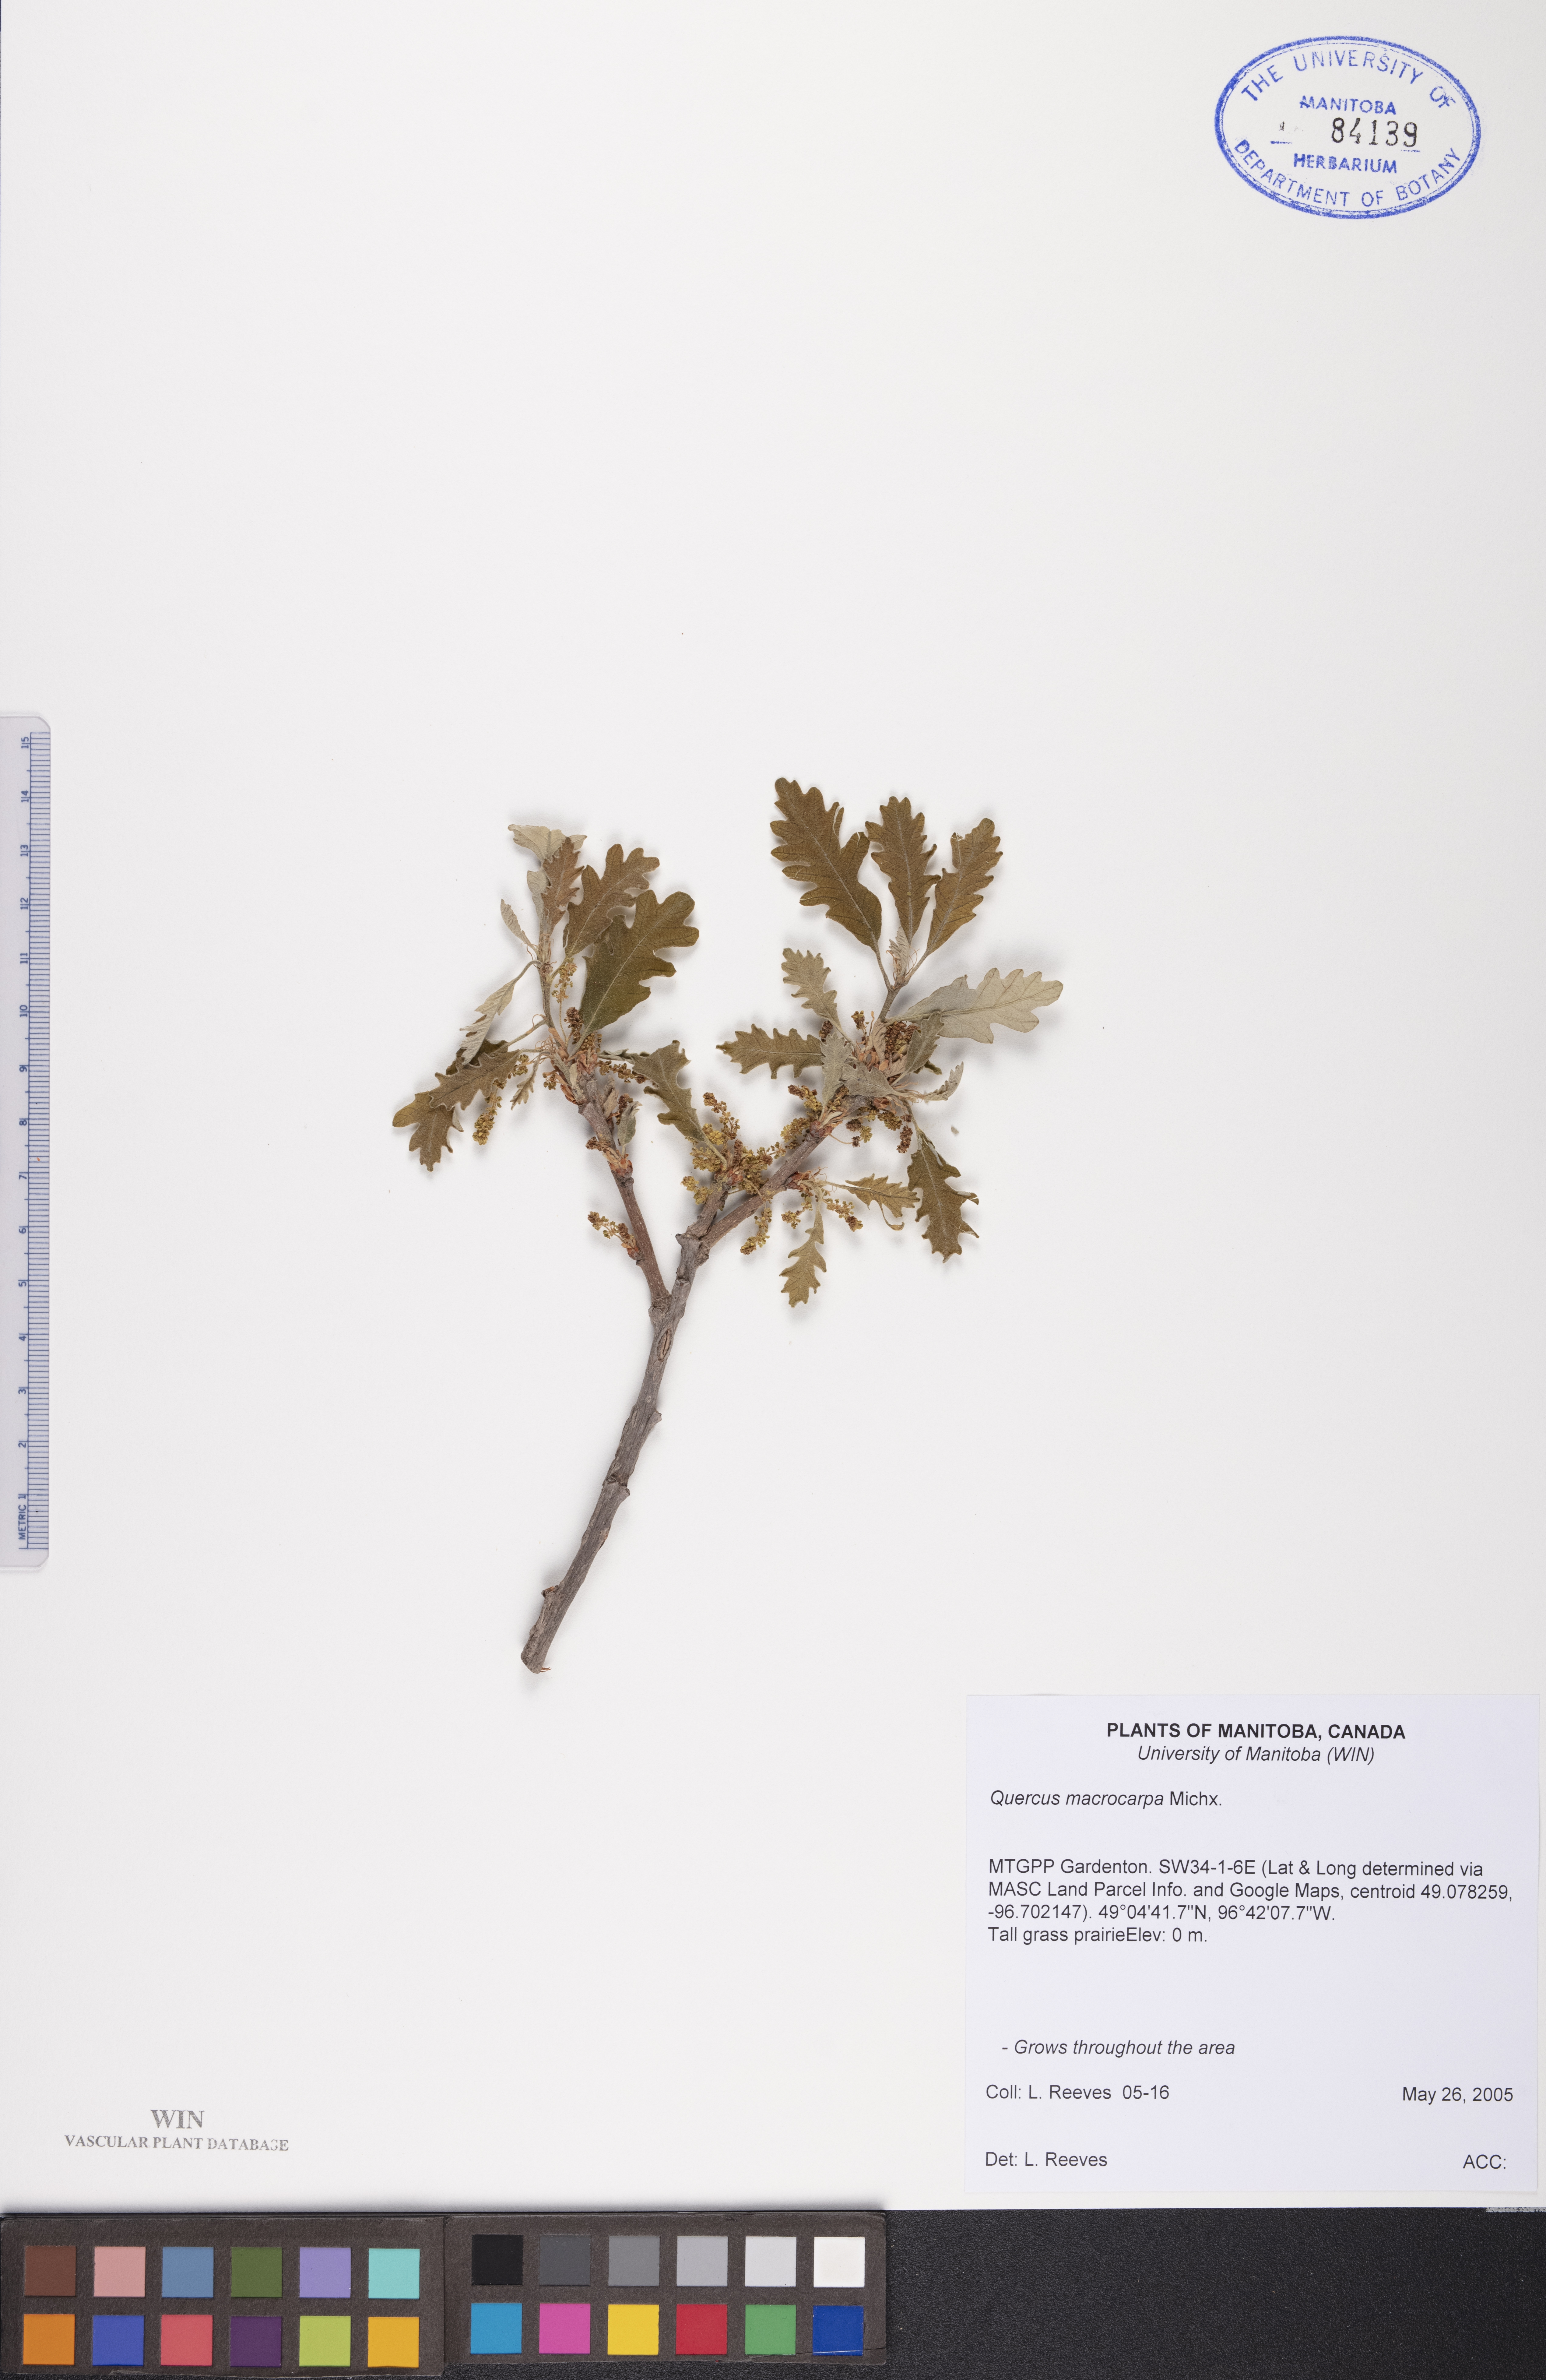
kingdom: Plantae
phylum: Tracheophyta
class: Magnoliopsida
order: Fagales
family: Fagaceae
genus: Quercus
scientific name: Quercus macrocarpa
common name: Bur oak
